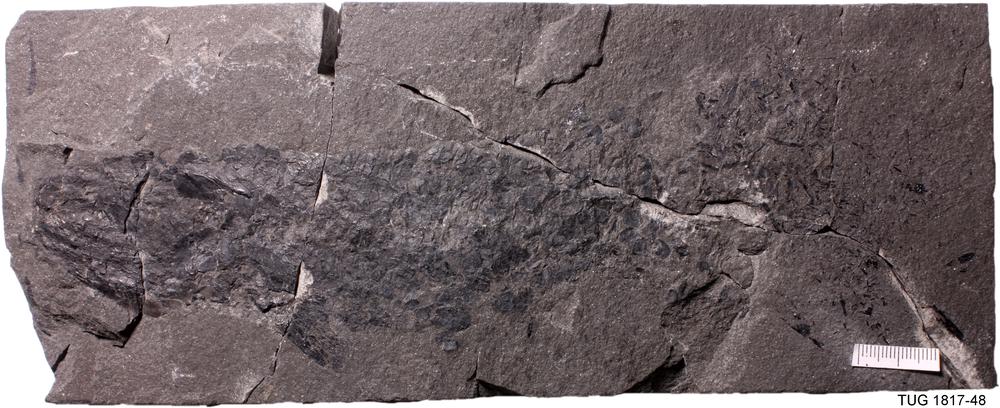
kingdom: Animalia
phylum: Chordata
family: Eusthenopteridae
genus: Tristichopterus
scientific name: Tristichopterus alatus
